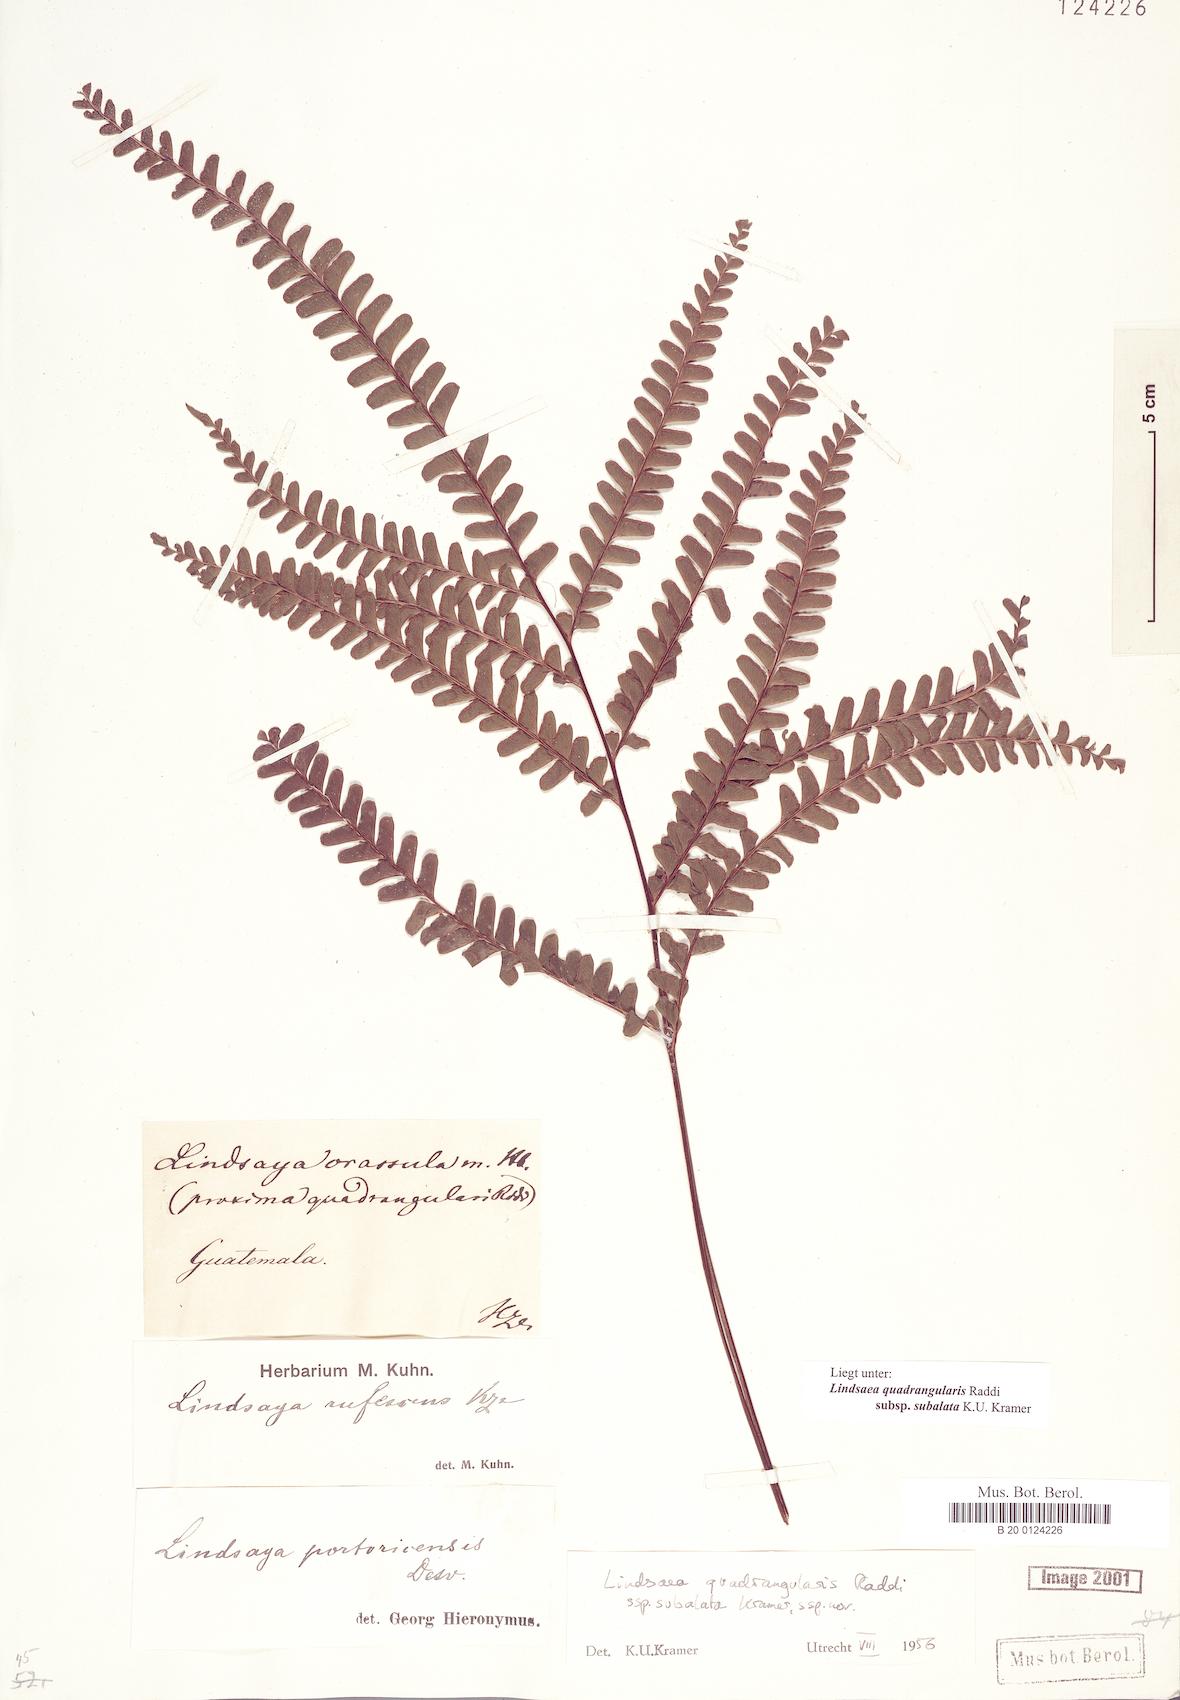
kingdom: Plantae
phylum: Tracheophyta
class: Polypodiopsida
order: Polypodiales
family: Lindsaeaceae
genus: Lindsaea
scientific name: Lindsaea subalata
